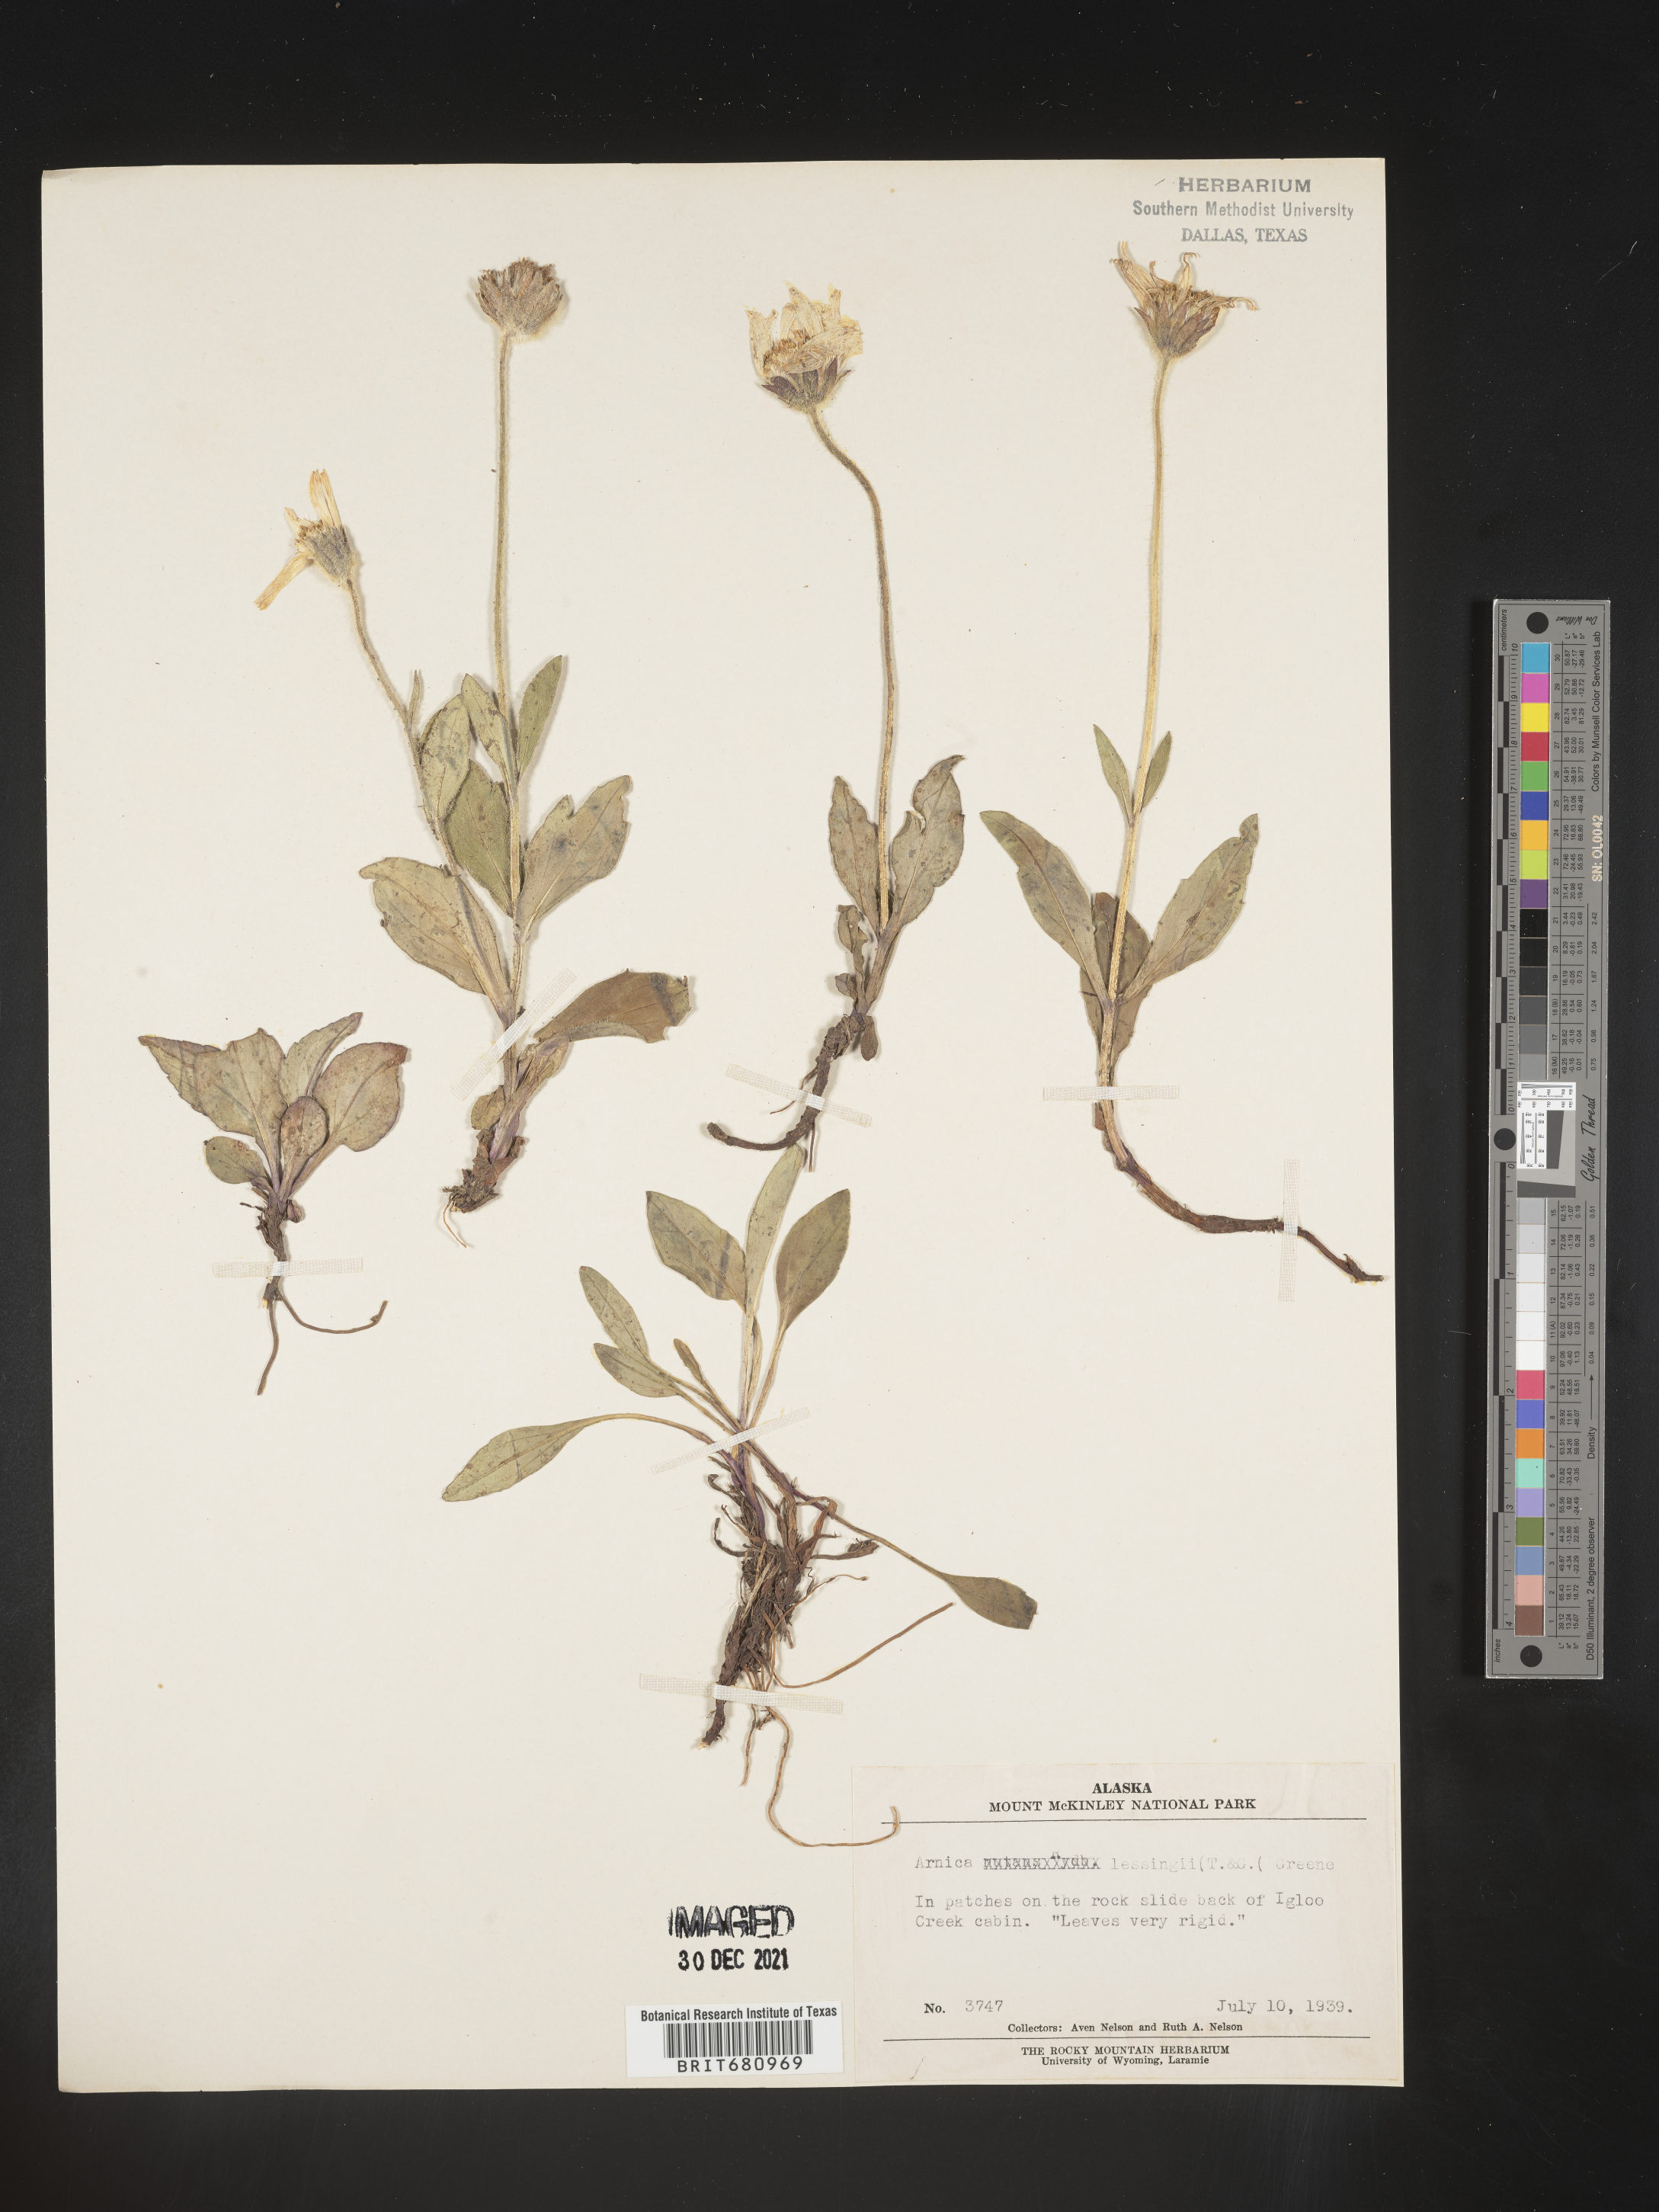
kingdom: Plantae
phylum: Tracheophyta
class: Magnoliopsida
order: Asterales
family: Asteraceae
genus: Arnica
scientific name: Arnica lessingii
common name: Nodding arnica
